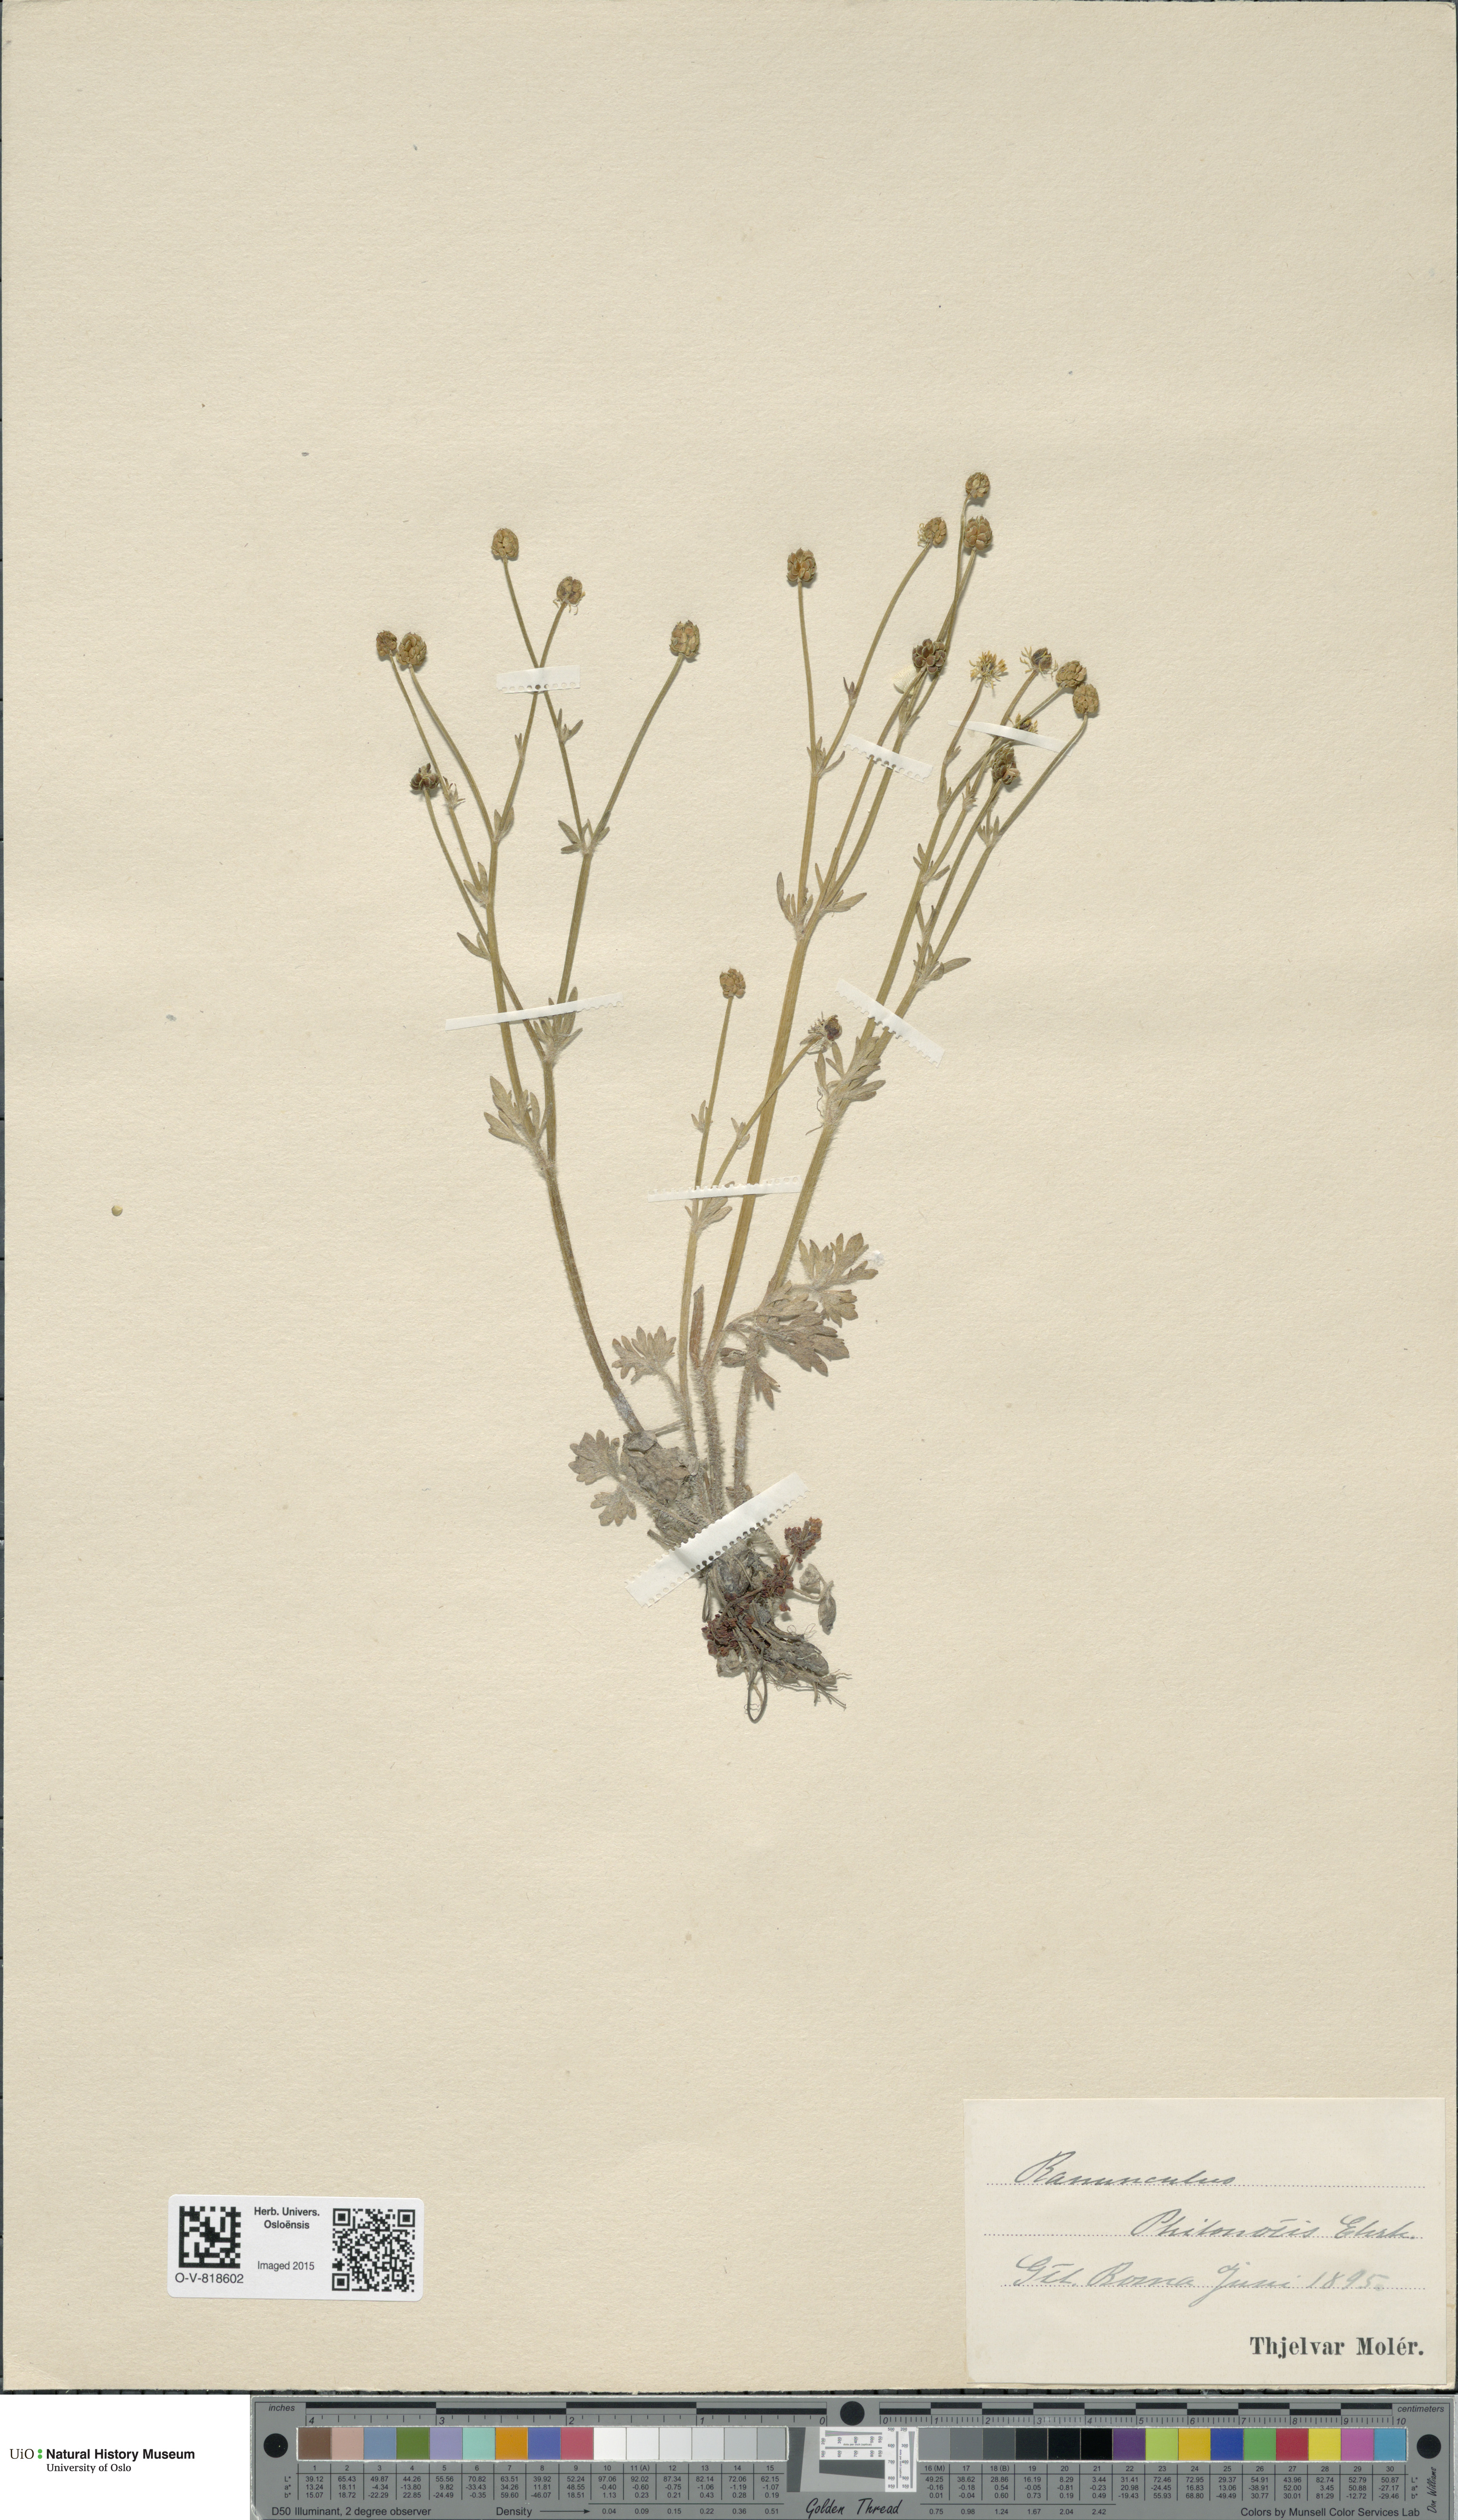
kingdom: Plantae
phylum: Tracheophyta
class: Magnoliopsida
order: Ranunculales
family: Ranunculaceae
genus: Ranunculus
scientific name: Ranunculus sardous
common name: Hairy buttercup
